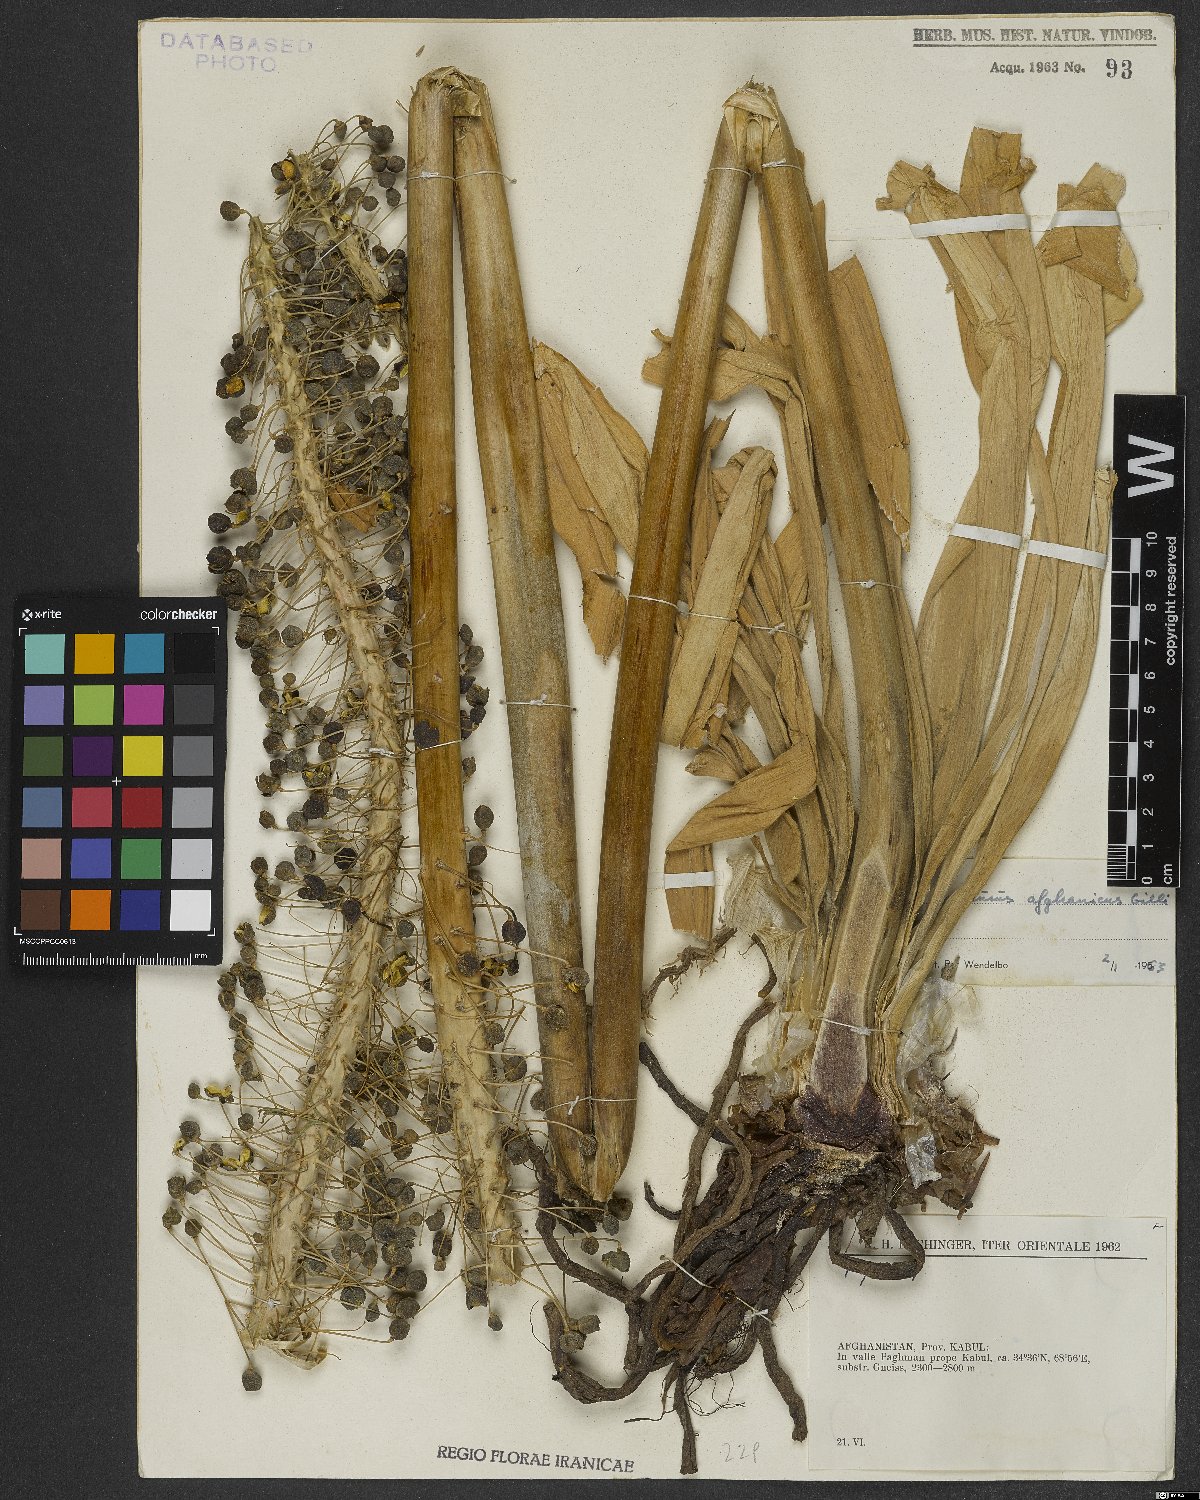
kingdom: Plantae
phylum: Tracheophyta
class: Liliopsida
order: Asparagales
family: Asphodelaceae
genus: Eremurus
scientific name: Eremurus afghanicus
